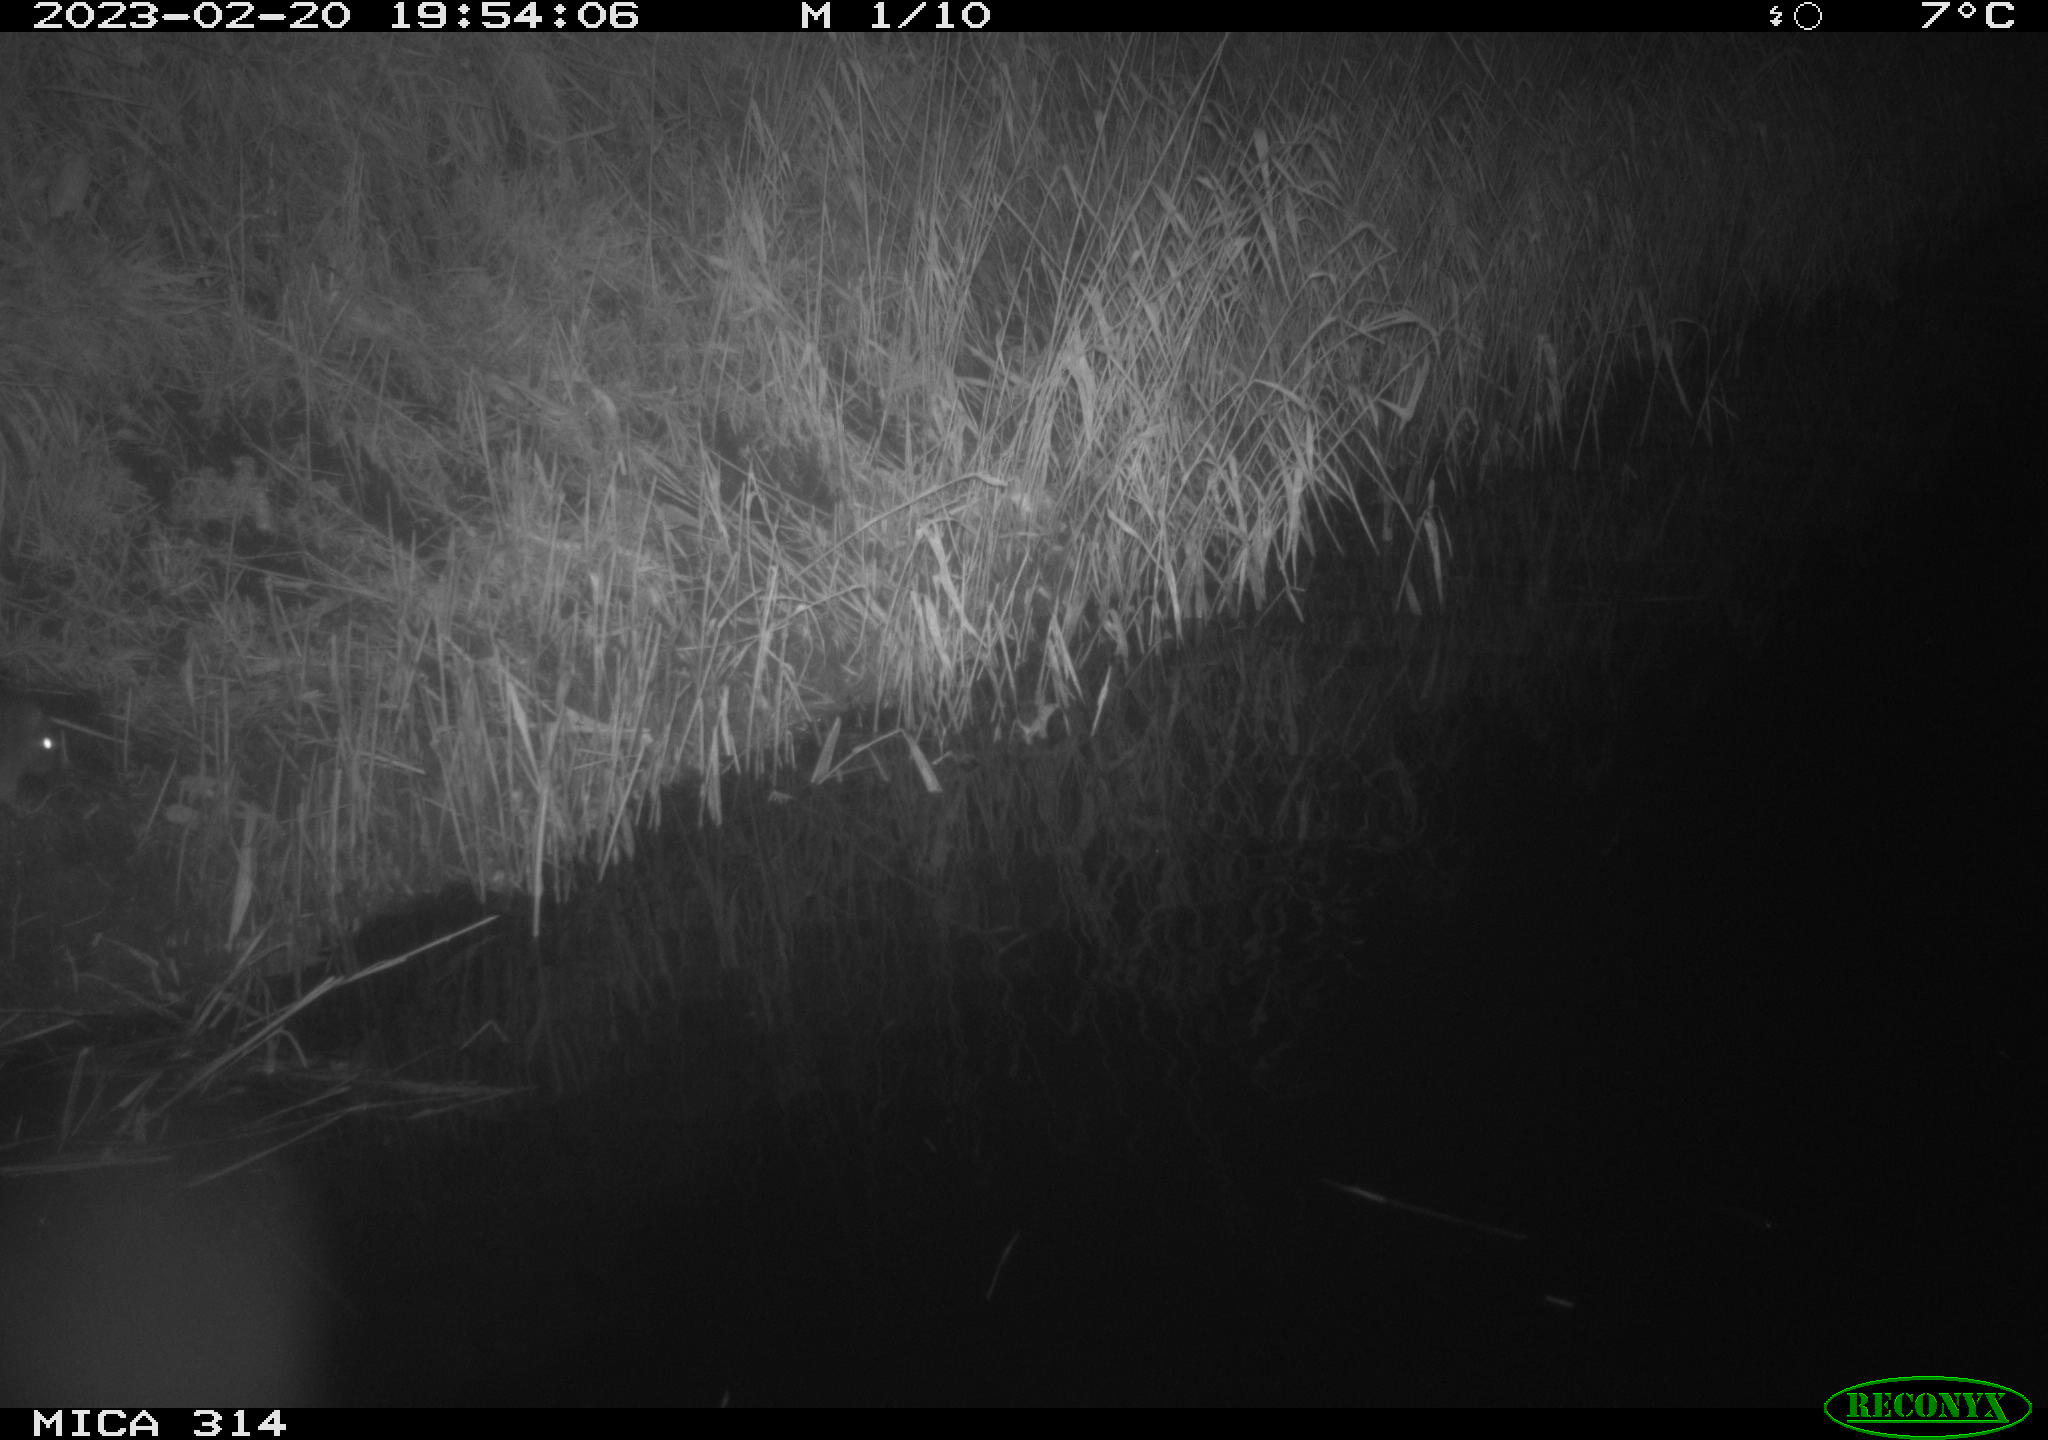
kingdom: Animalia
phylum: Chordata
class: Mammalia
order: Rodentia
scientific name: Rodentia
